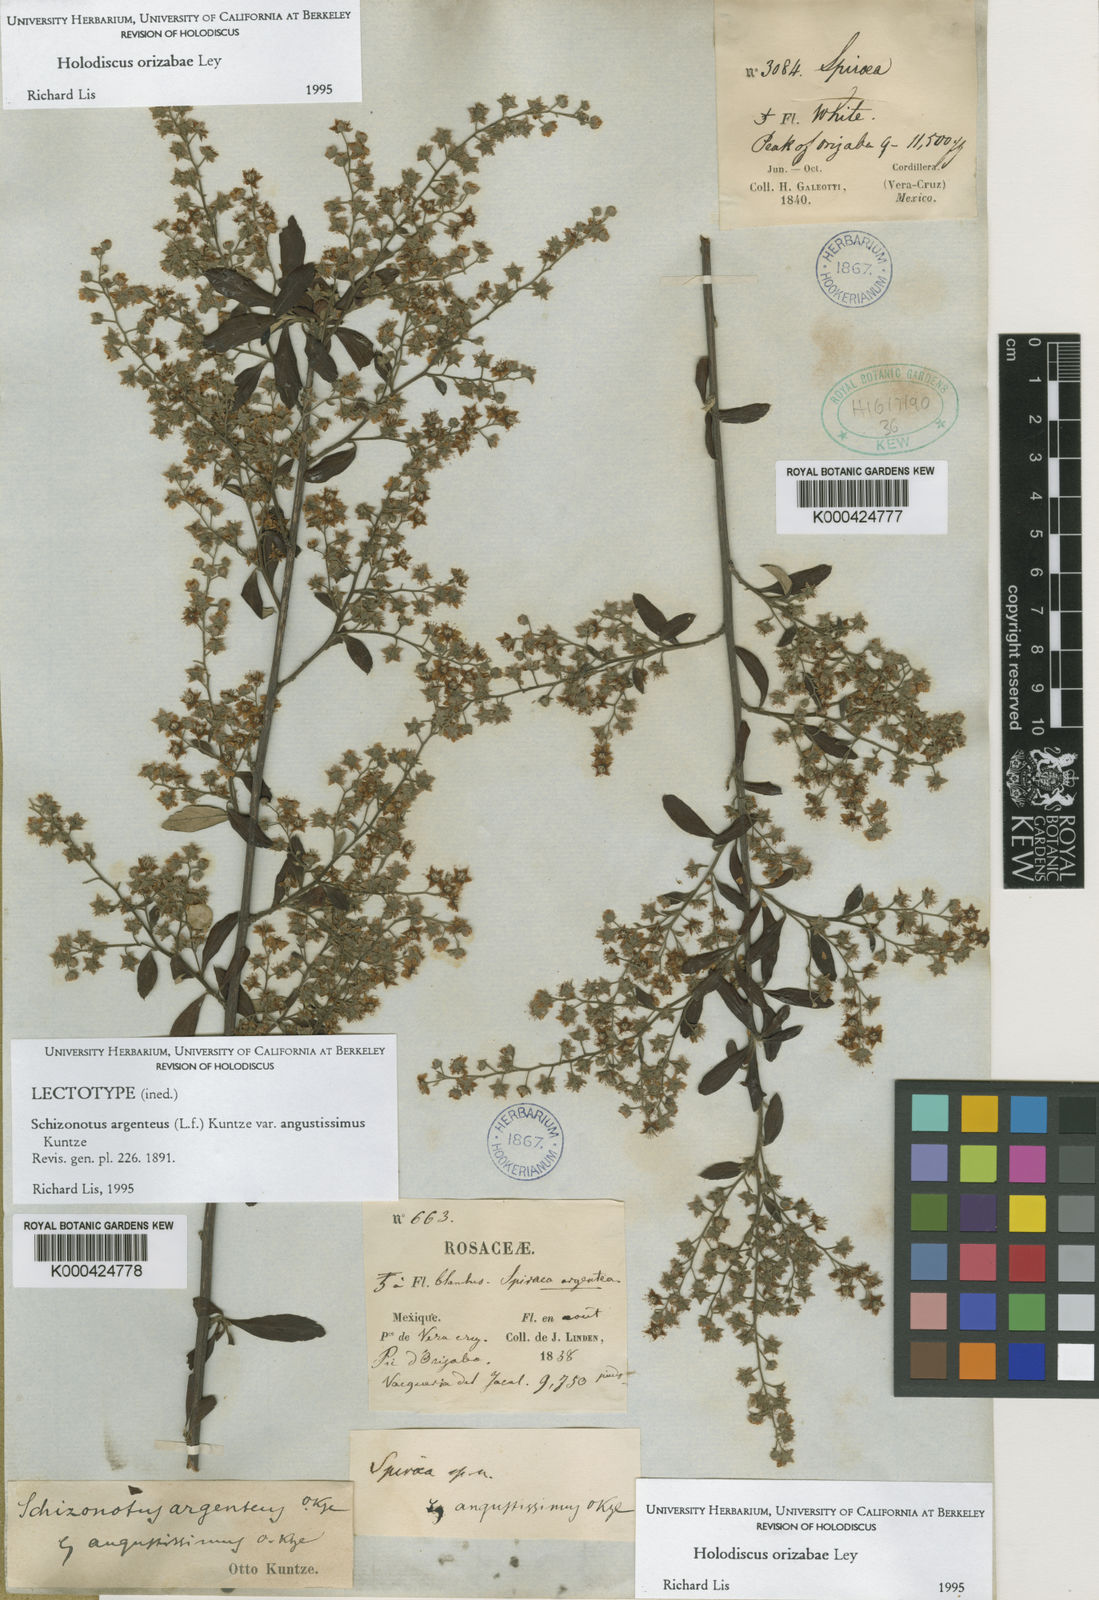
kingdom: Plantae
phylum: Tracheophyta
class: Magnoliopsida
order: Rosales
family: Rosaceae
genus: Holodiscus
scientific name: Holodiscus orizabae
